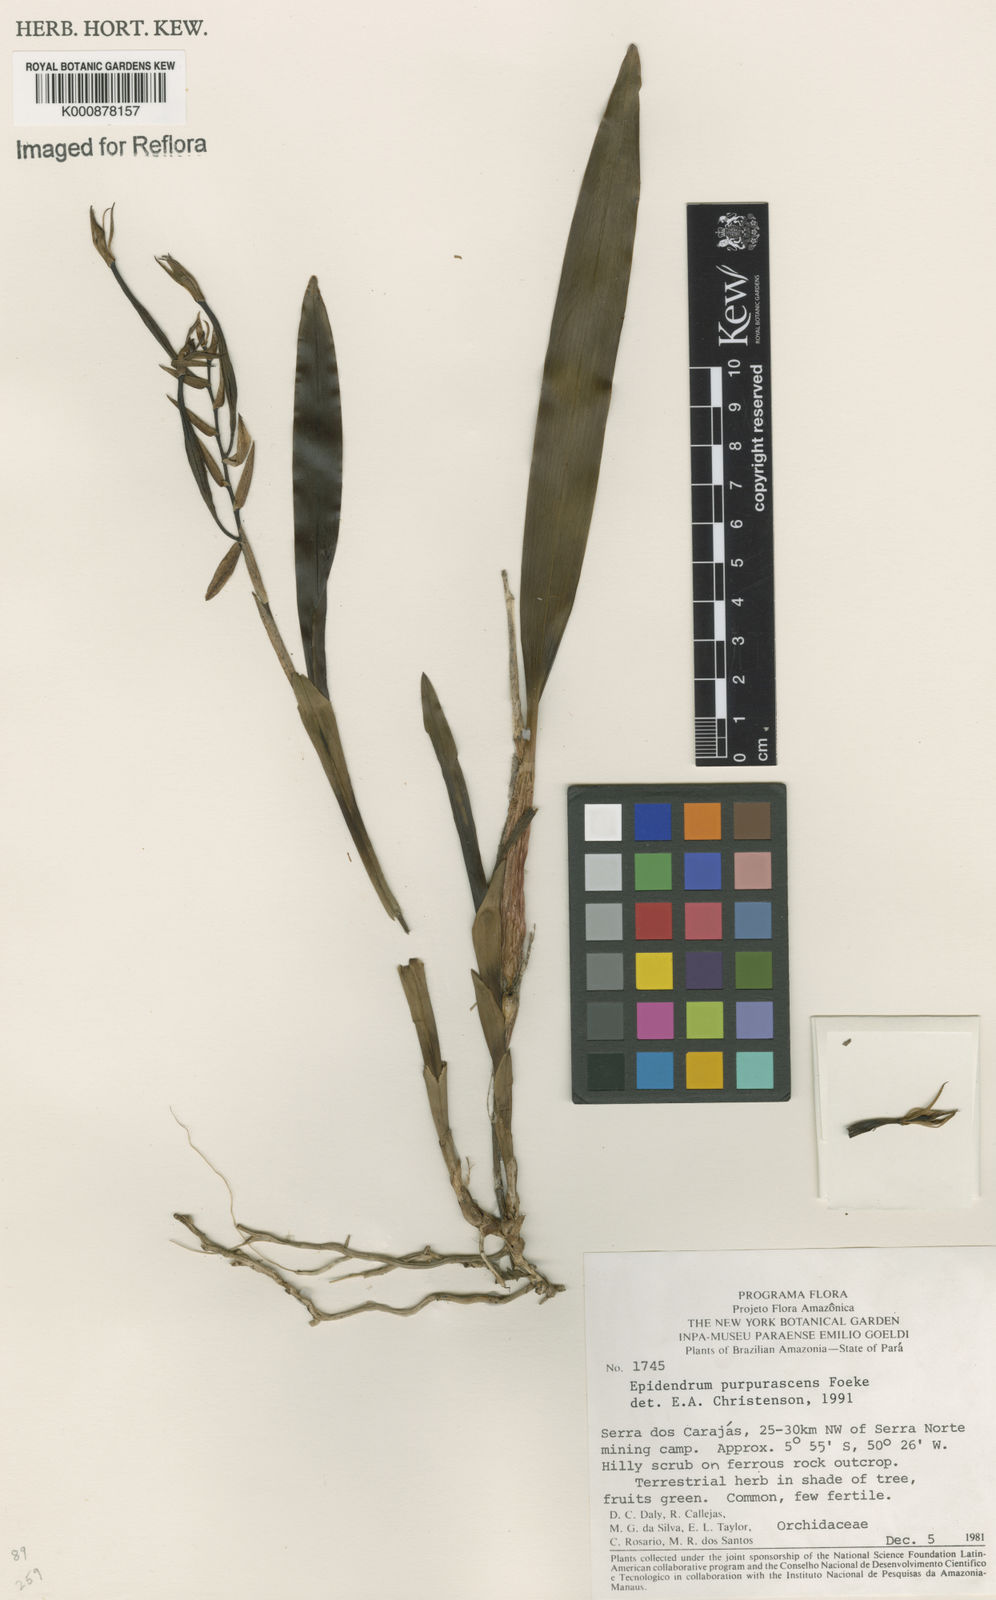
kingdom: Plantae
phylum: Tracheophyta
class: Liliopsida
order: Asparagales
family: Orchidaceae
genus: Epidendrum
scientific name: Epidendrum purpurascens
